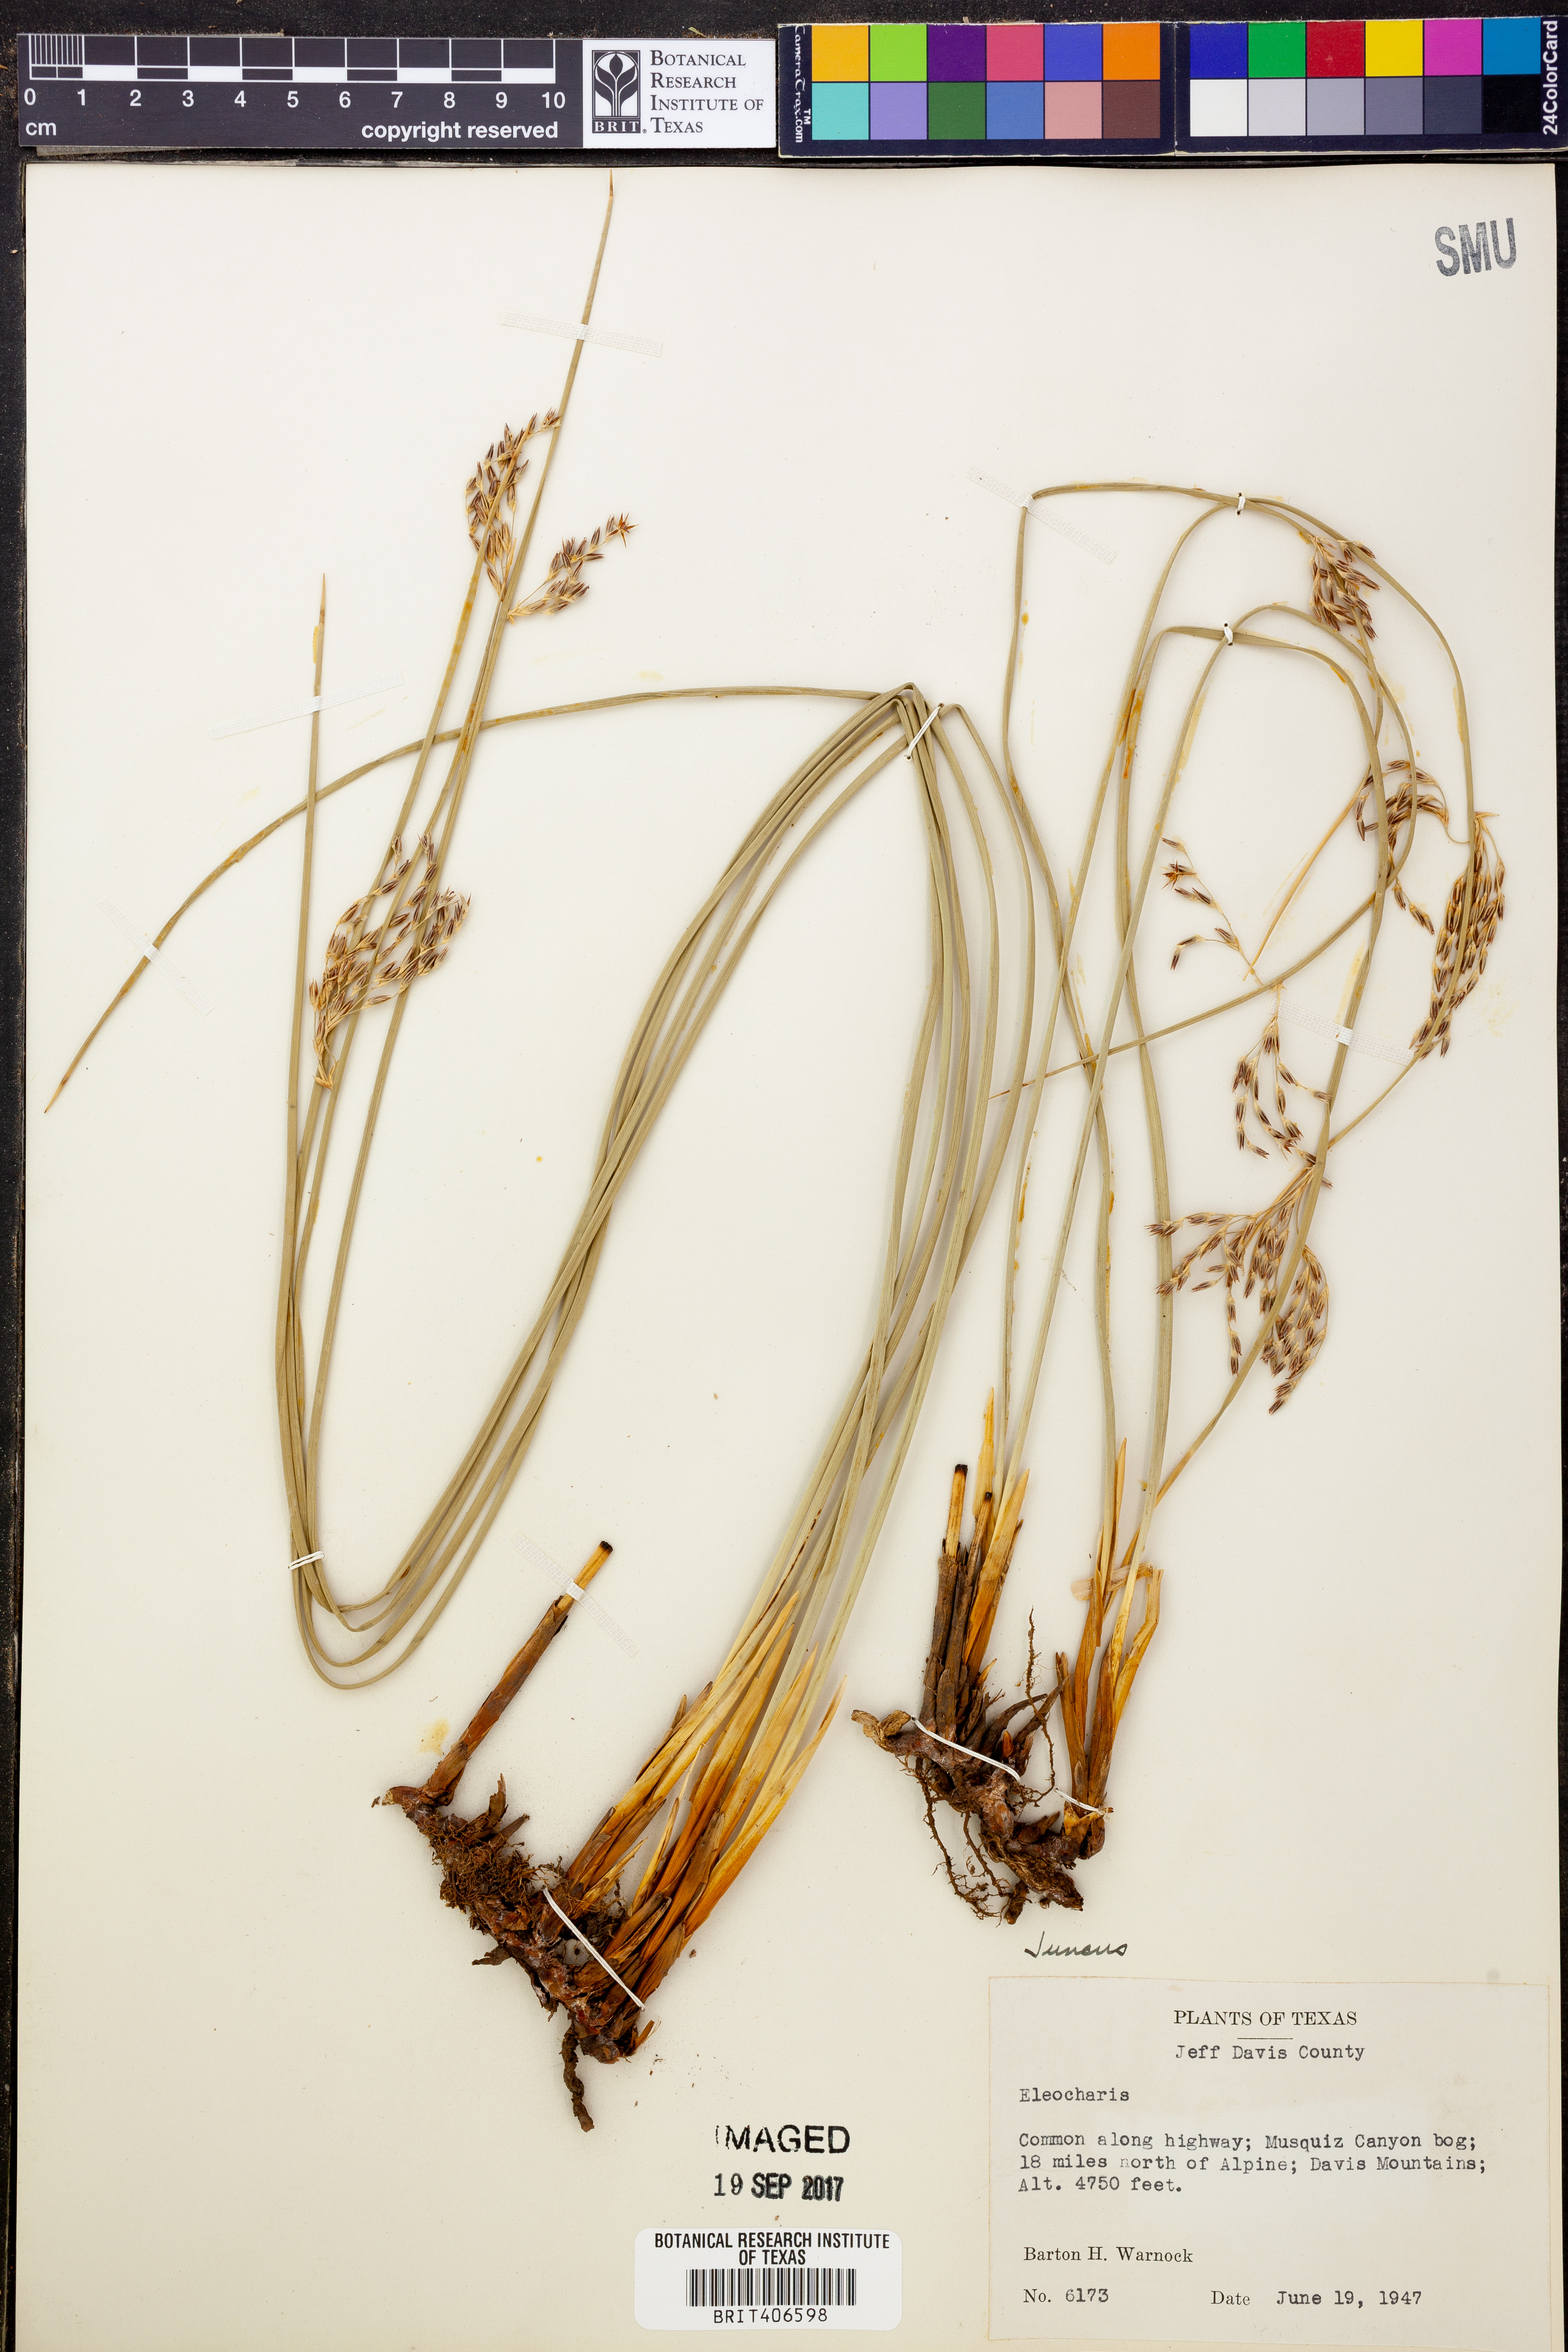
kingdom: Plantae
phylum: Tracheophyta
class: Liliopsida
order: Poales
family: Cyperaceae
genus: Eleocharis
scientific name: Eleocharis
